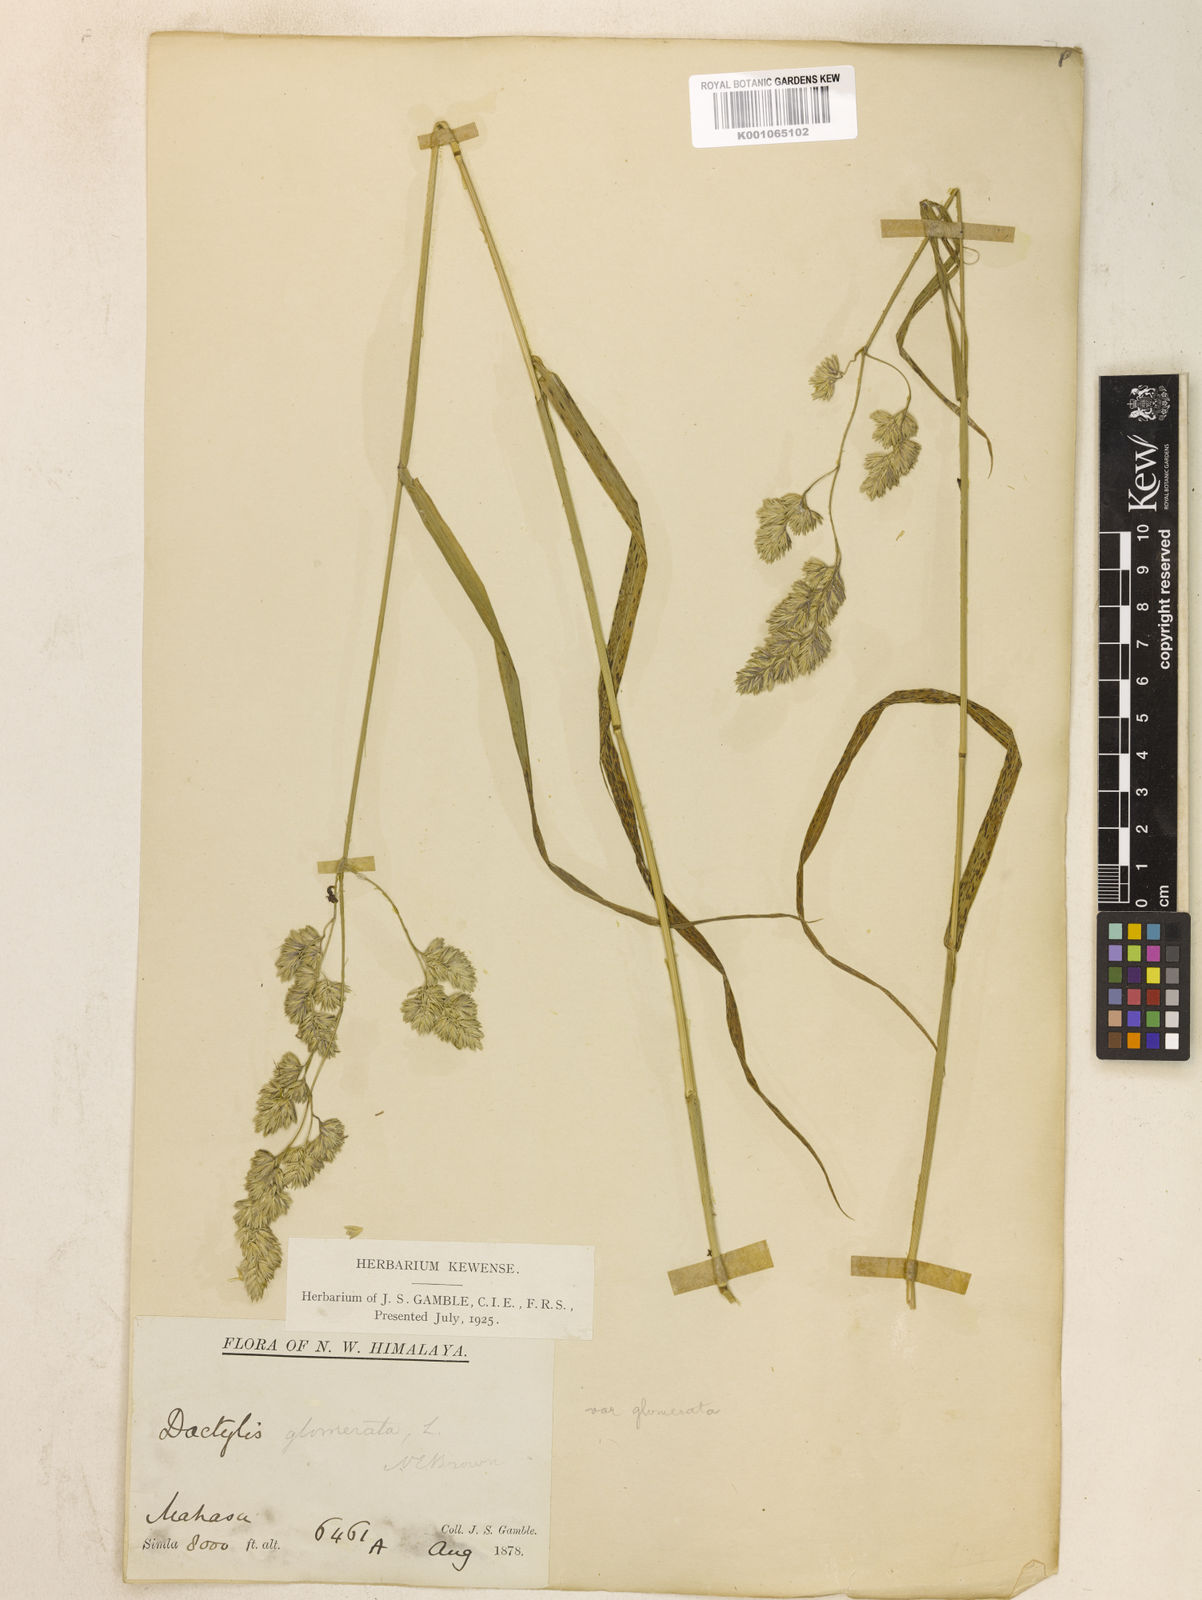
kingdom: Plantae
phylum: Tracheophyta
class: Liliopsida
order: Poales
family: Poaceae
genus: Dactylis
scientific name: Dactylis glomerata
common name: Orchardgrass
